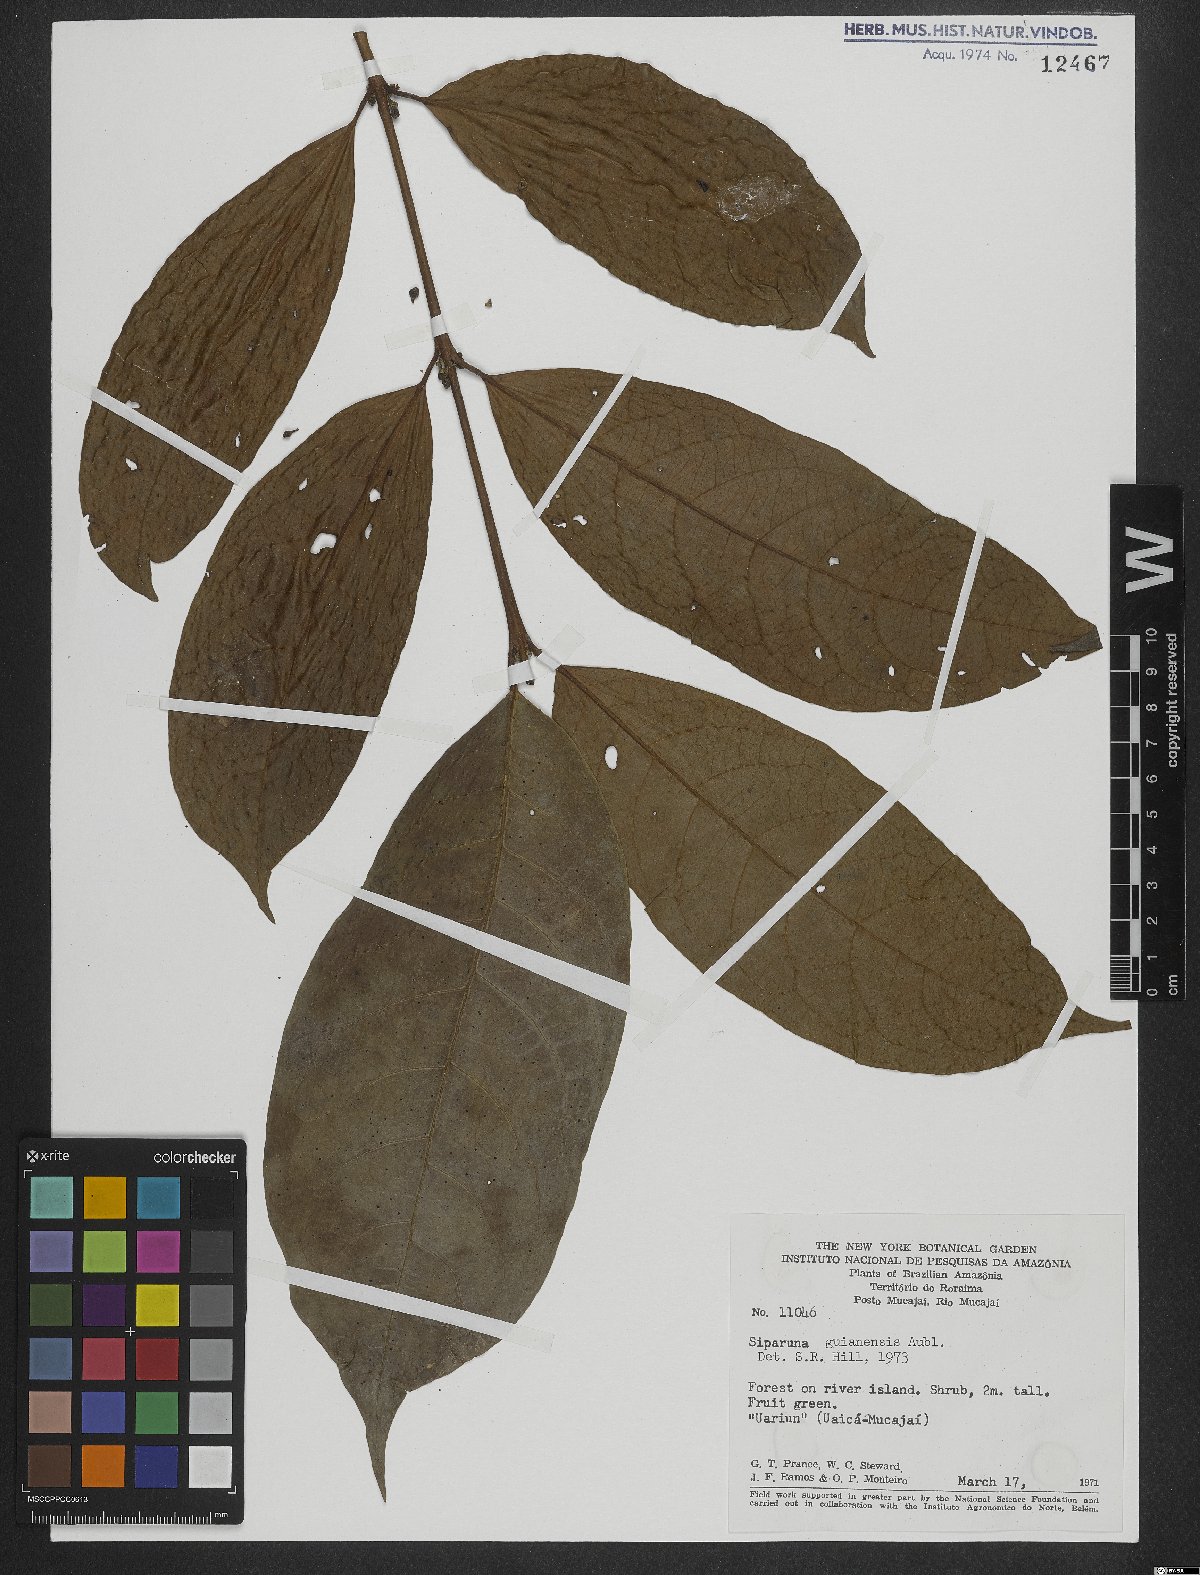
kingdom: Plantae
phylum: Tracheophyta
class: Magnoliopsida
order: Laurales
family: Siparunaceae
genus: Siparuna
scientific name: Siparuna guianensis
